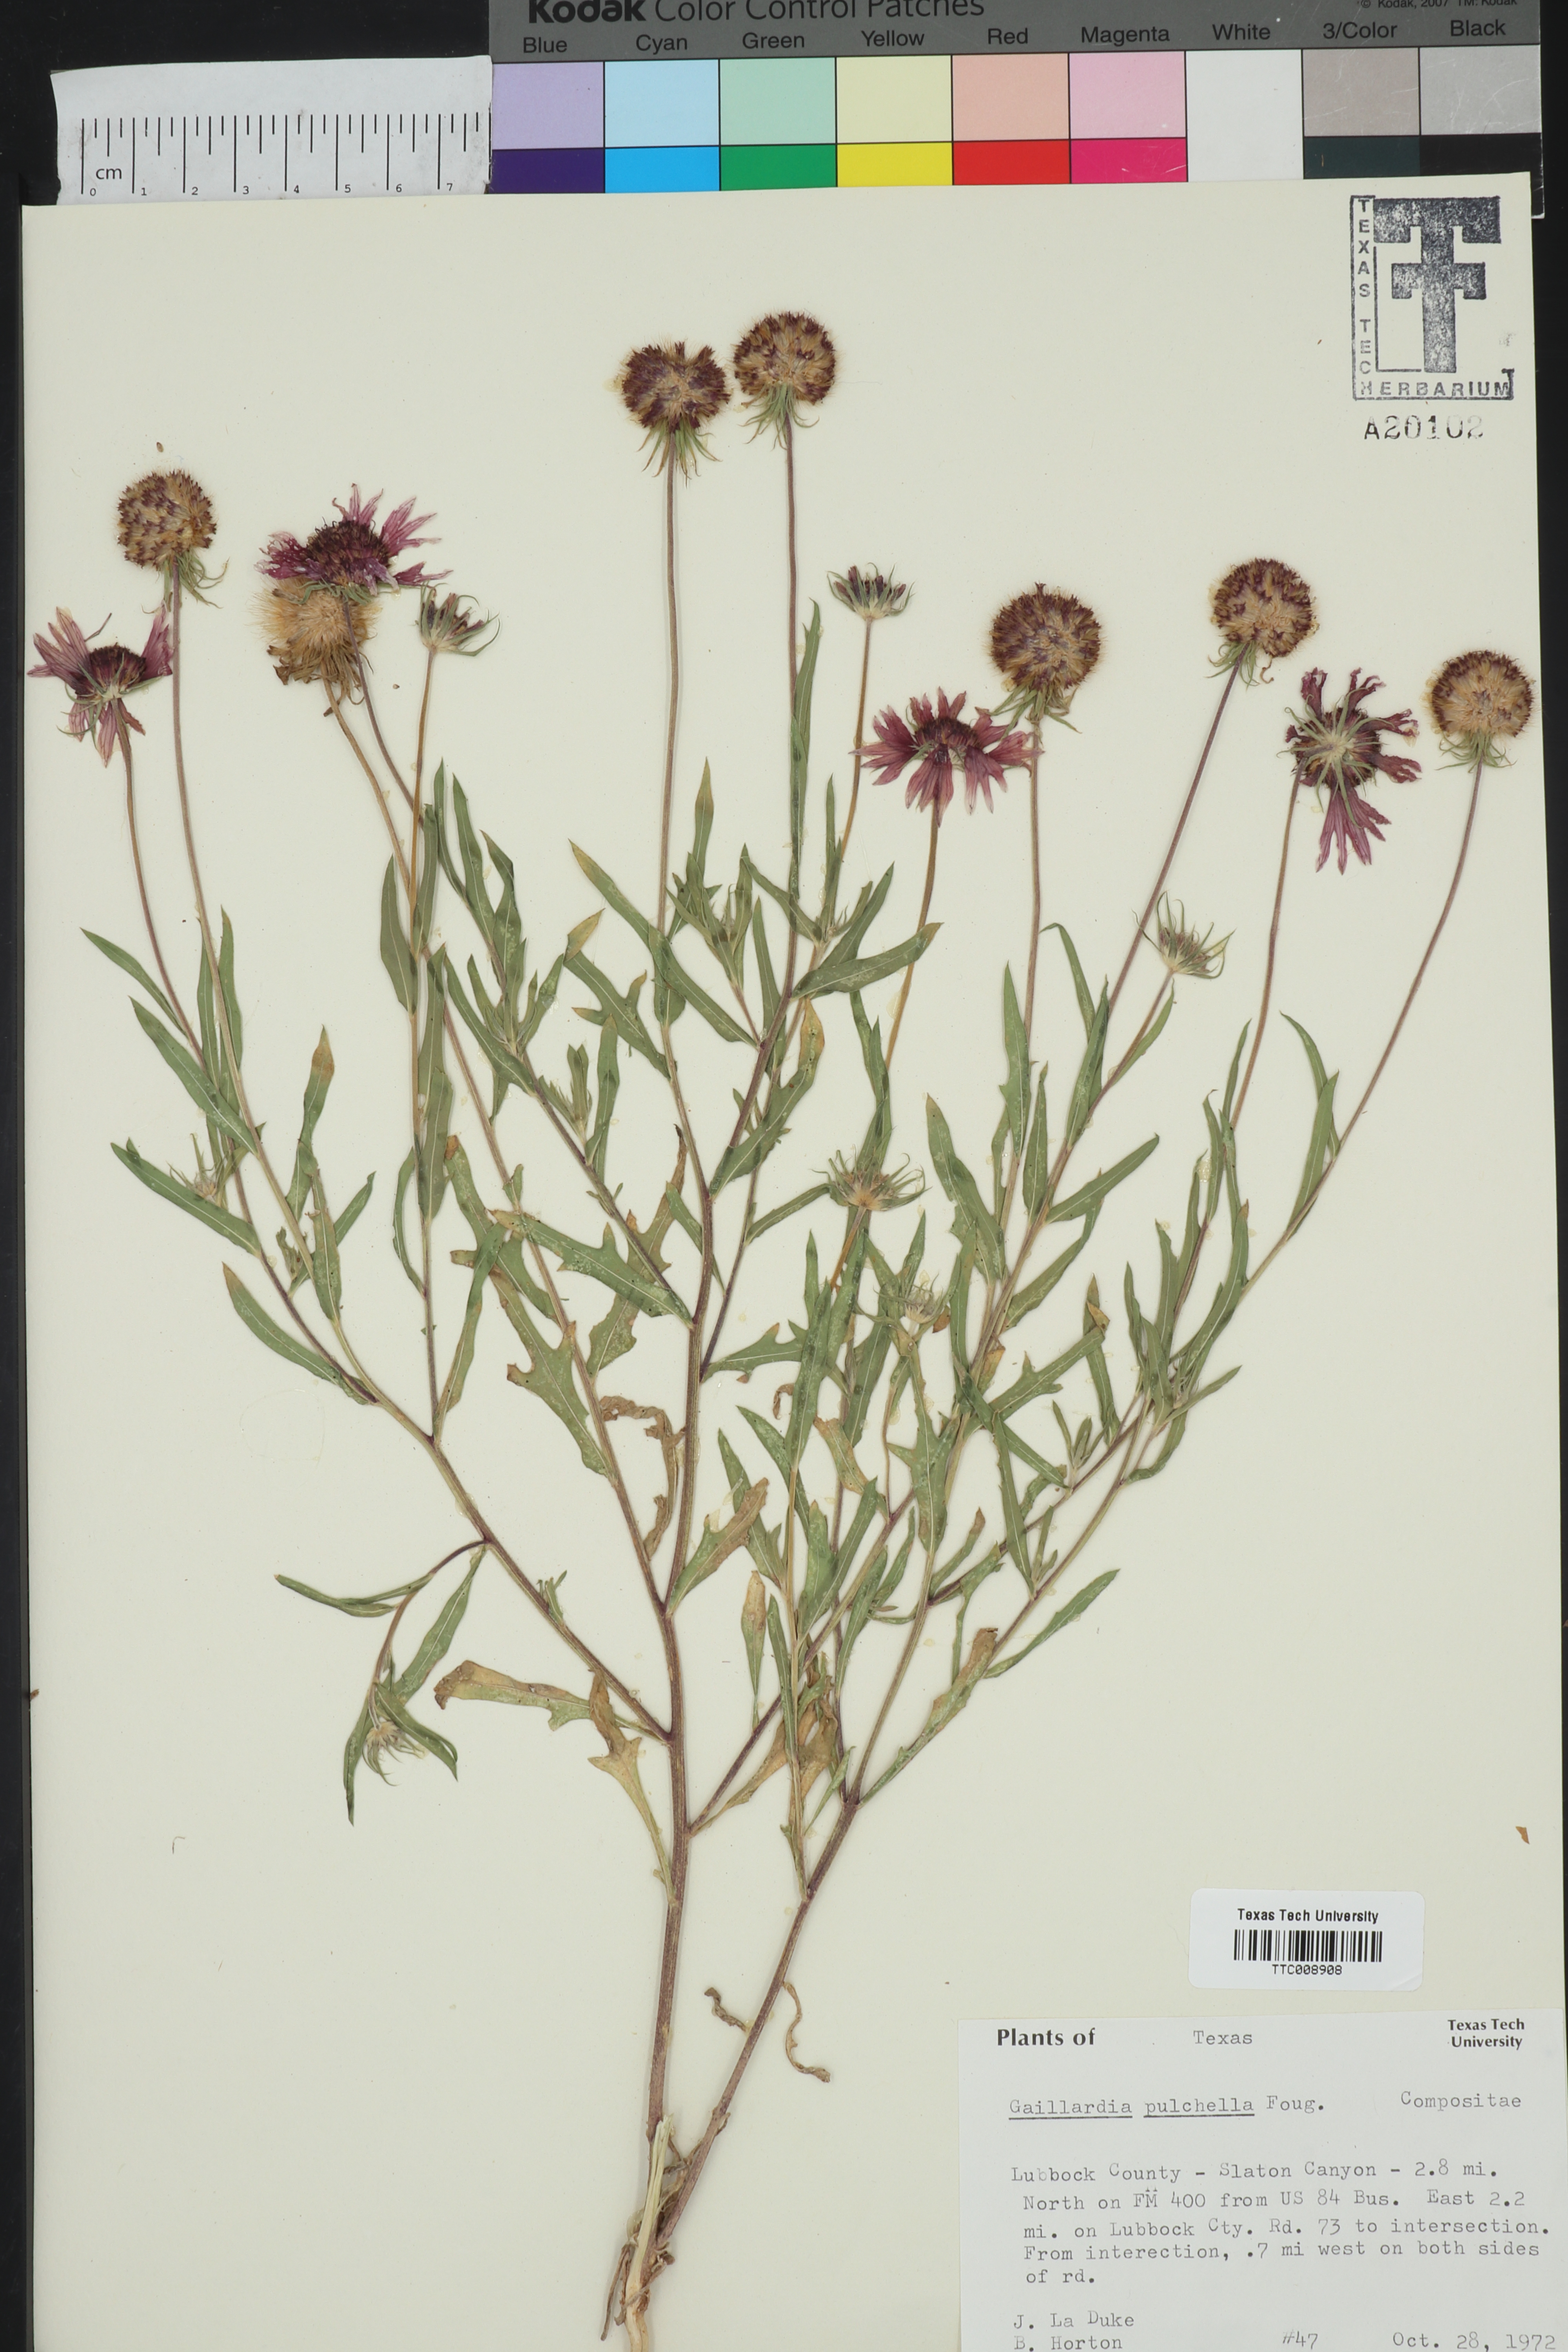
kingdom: Plantae
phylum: Tracheophyta
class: Magnoliopsida
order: Asterales
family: Asteraceae
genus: Gaillardia
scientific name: Gaillardia pulchella
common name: Firewheel
